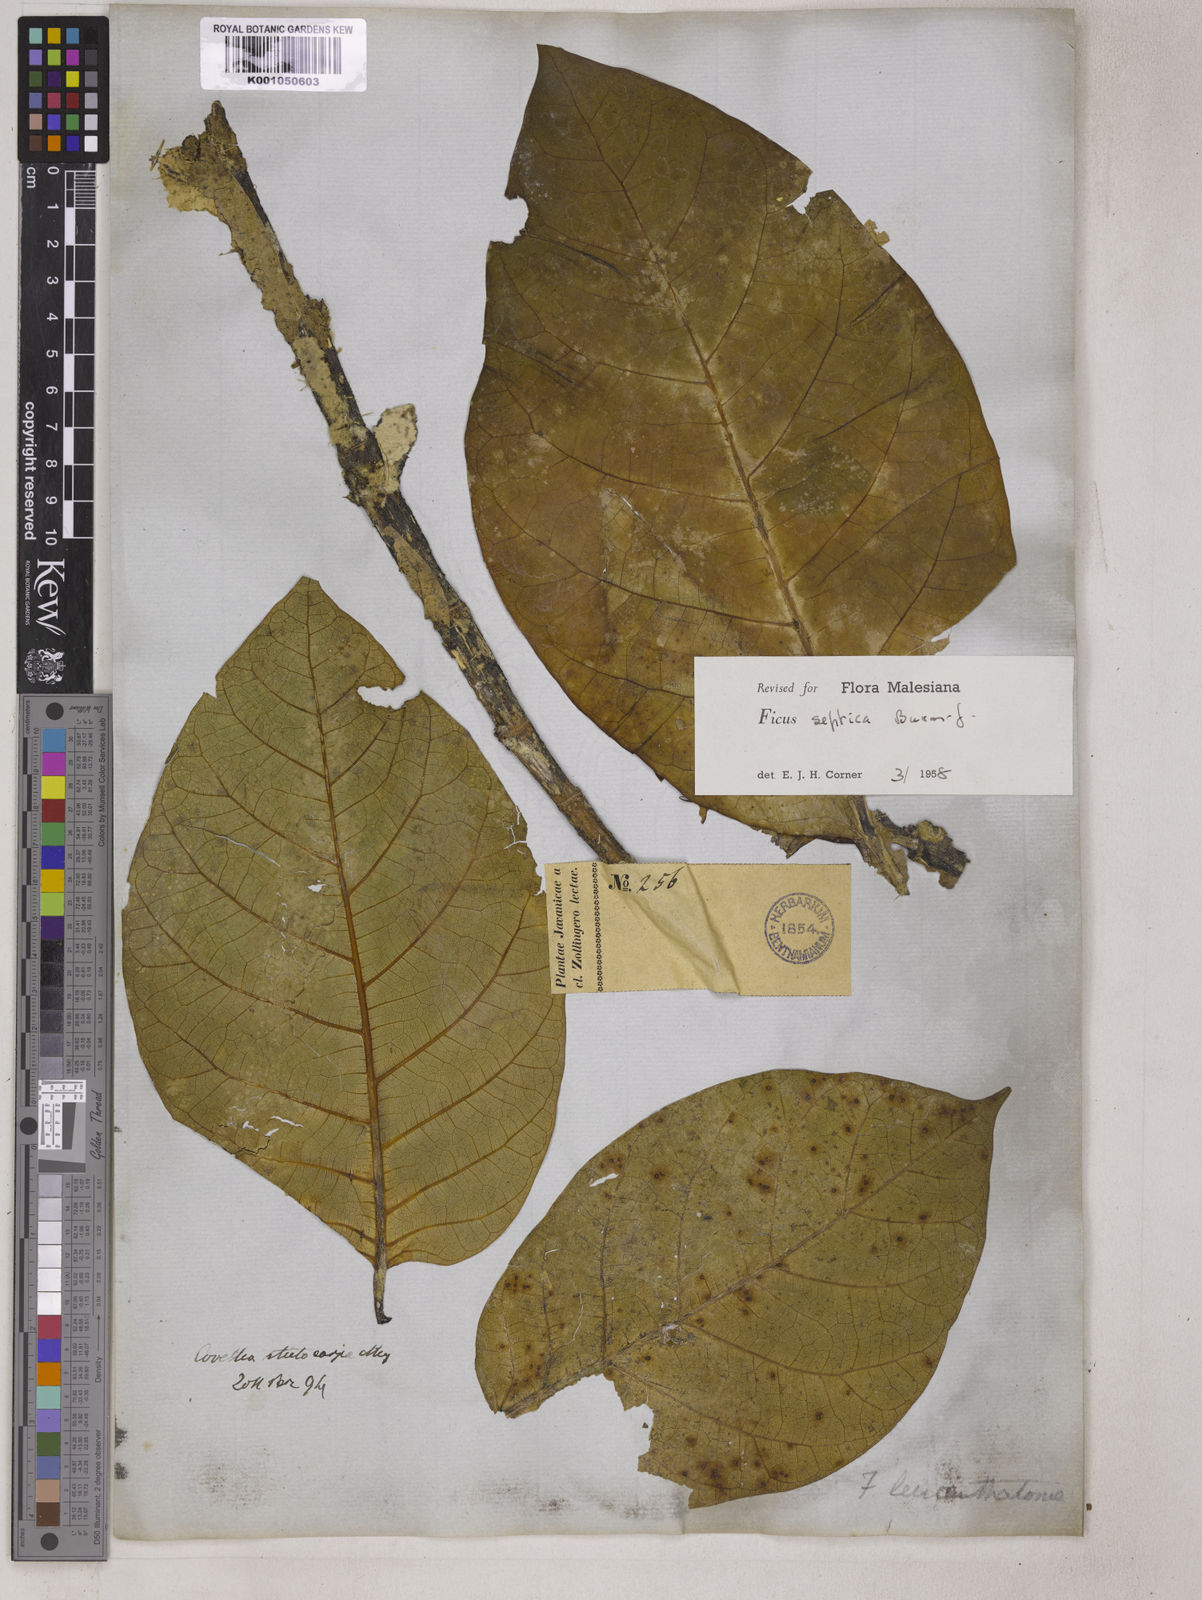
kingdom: Plantae
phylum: Tracheophyta
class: Magnoliopsida
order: Rosales
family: Moraceae
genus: Ficus
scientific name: Ficus septica
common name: Septic fig
